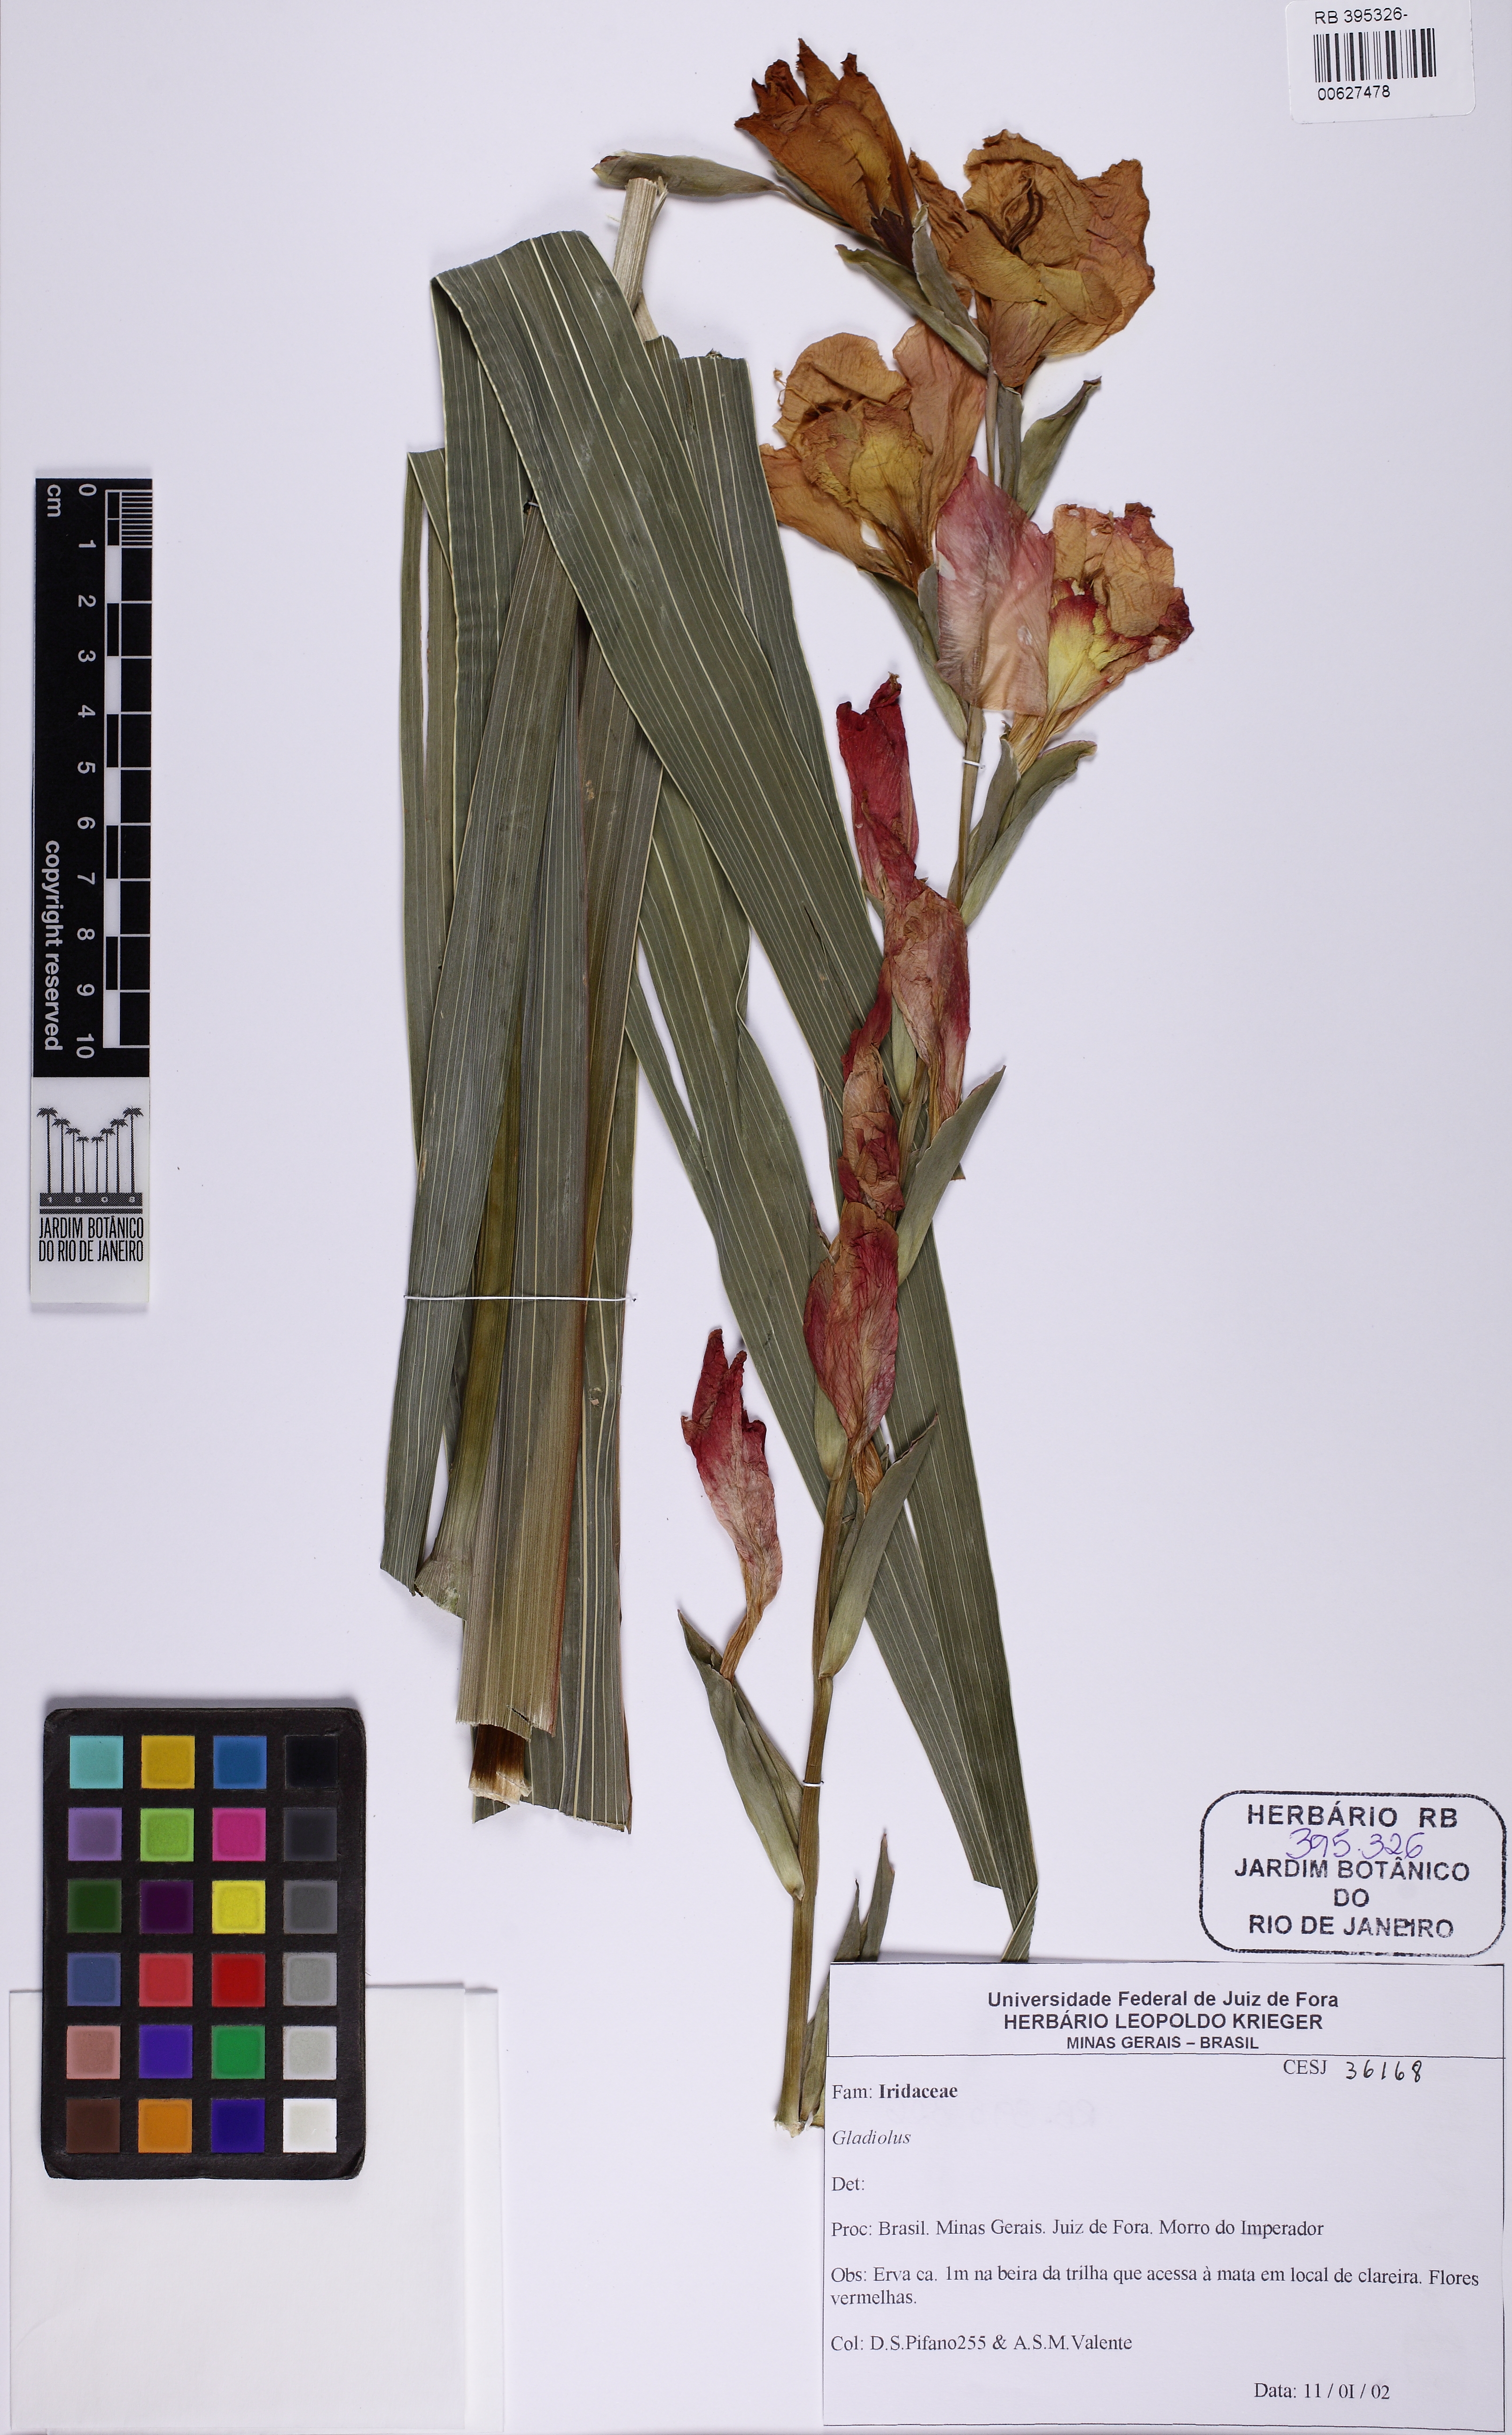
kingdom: Plantae
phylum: Tracheophyta
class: Liliopsida
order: Asparagales
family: Iridaceae
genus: Gladiolus
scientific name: Gladiolus
